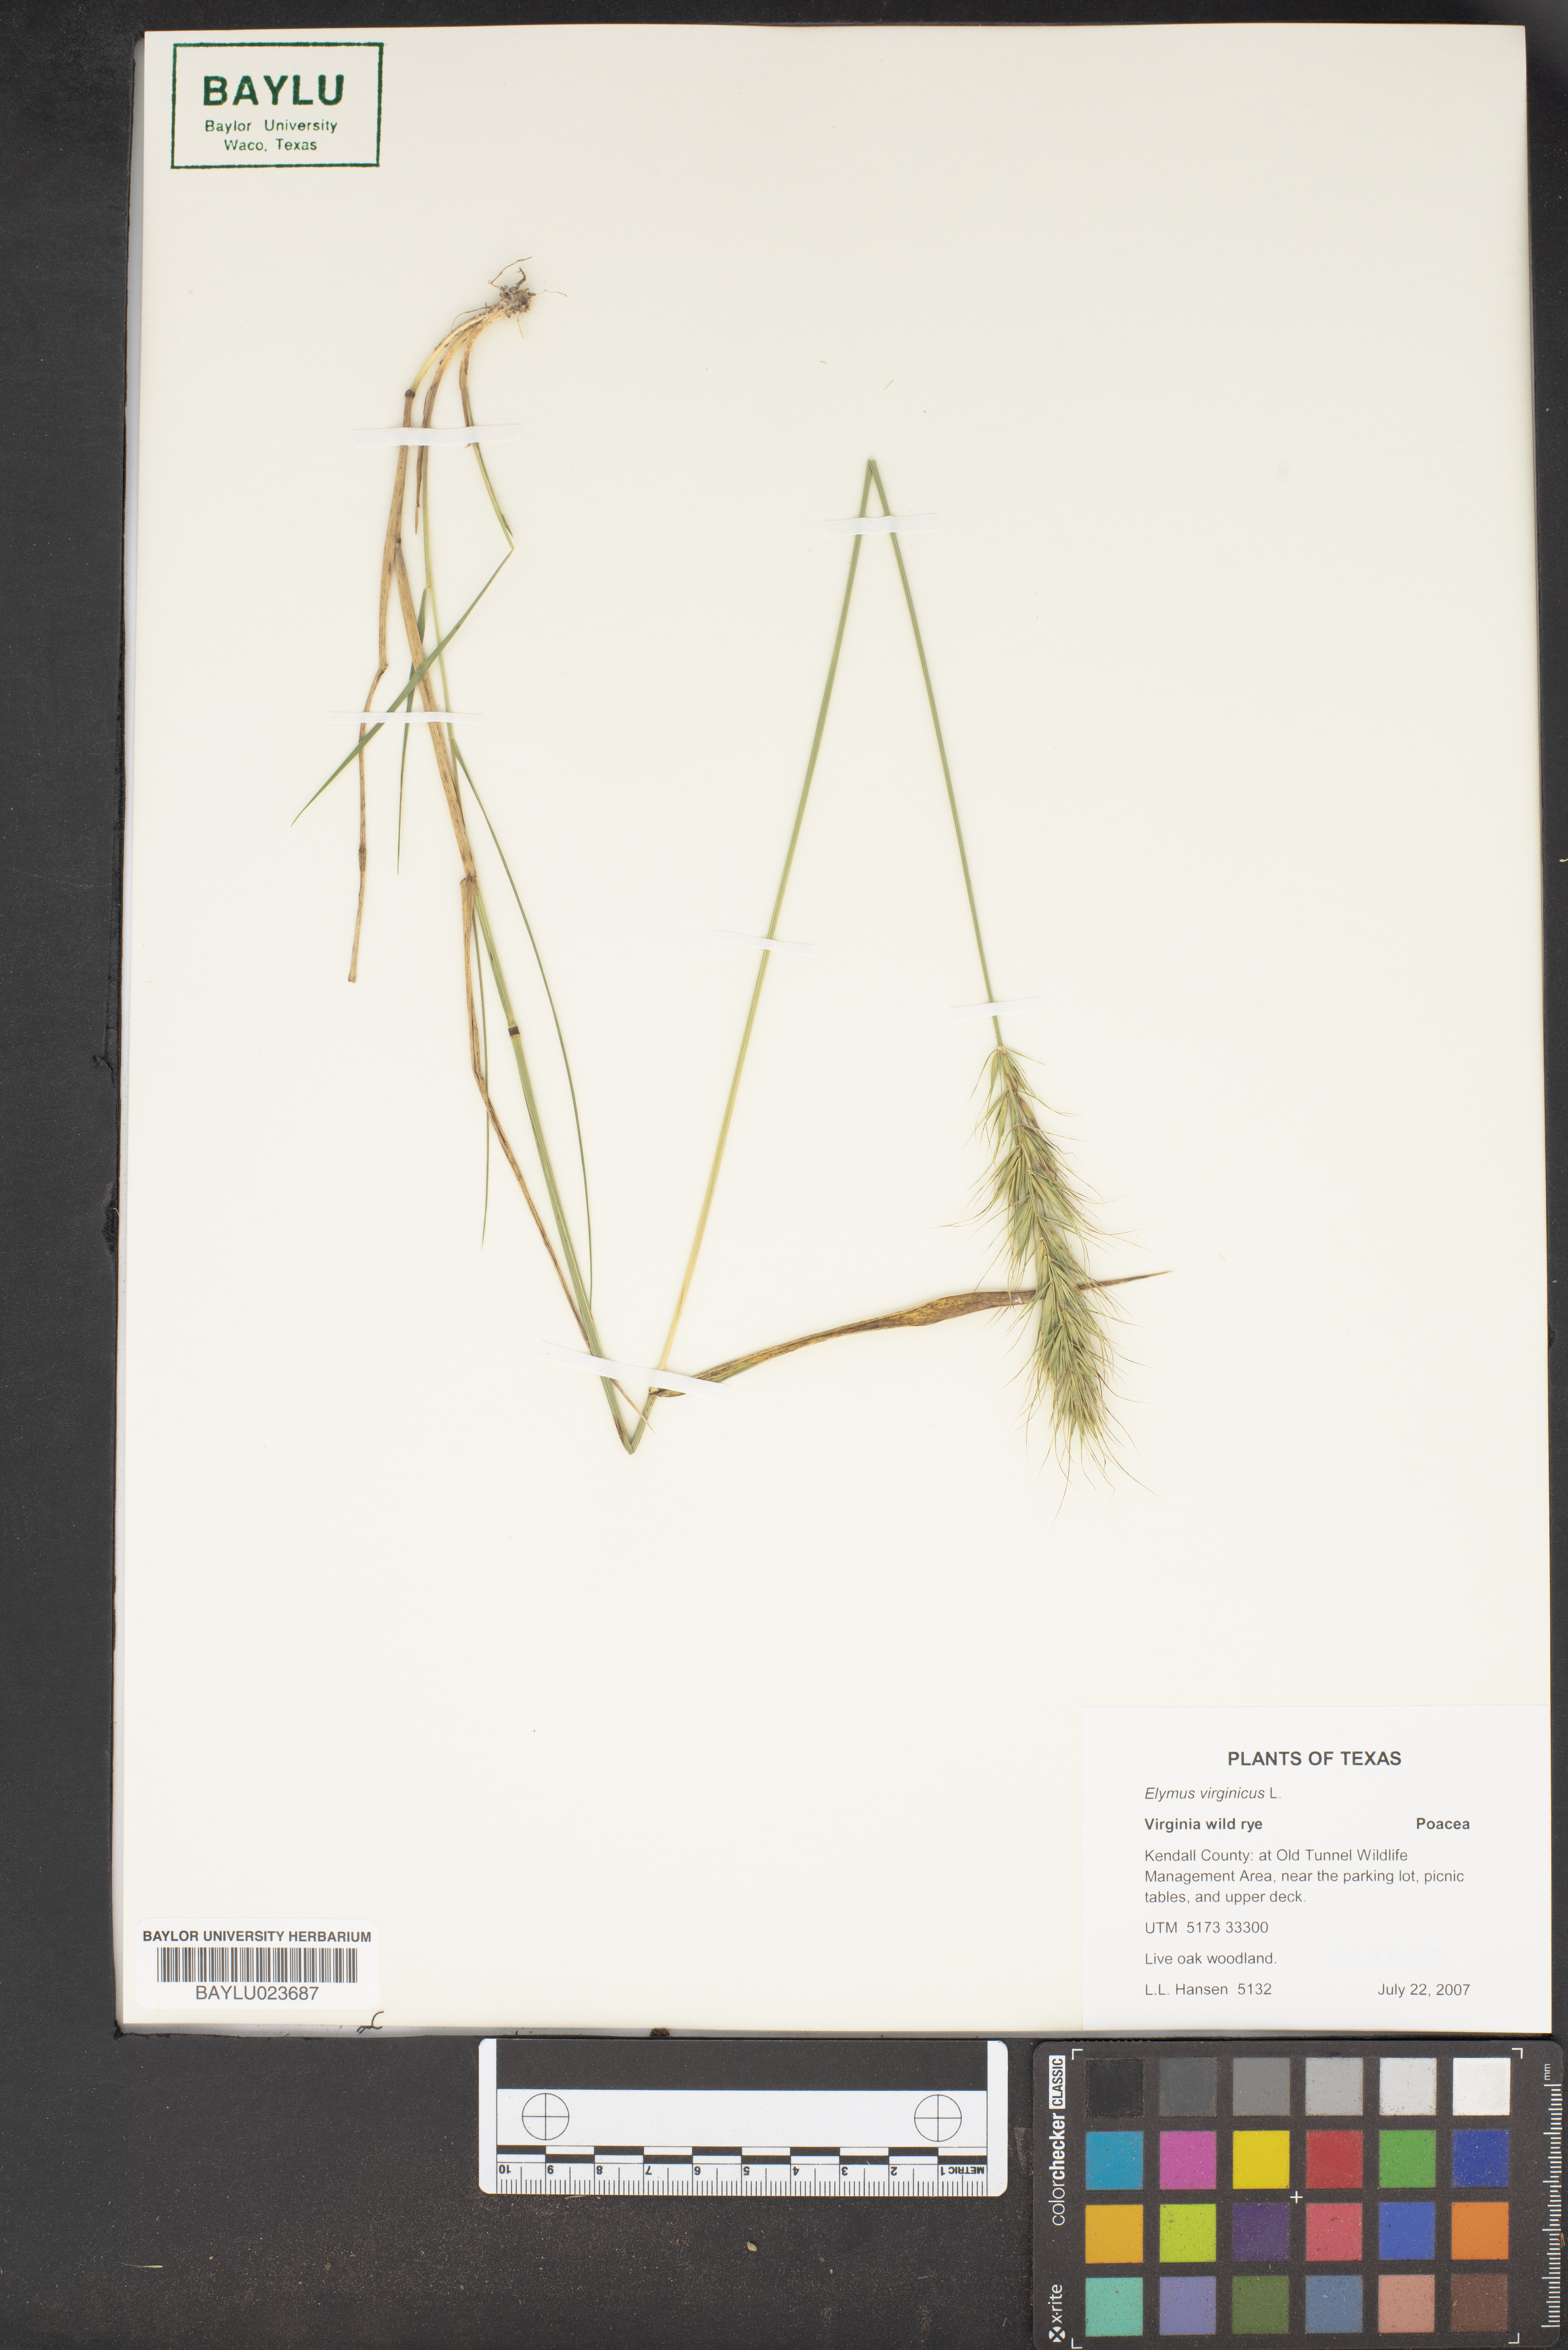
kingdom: Plantae
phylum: Tracheophyta
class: Liliopsida
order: Poales
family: Poaceae
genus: Elymus
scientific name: Elymus virginicus
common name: Common eastern wildrye
